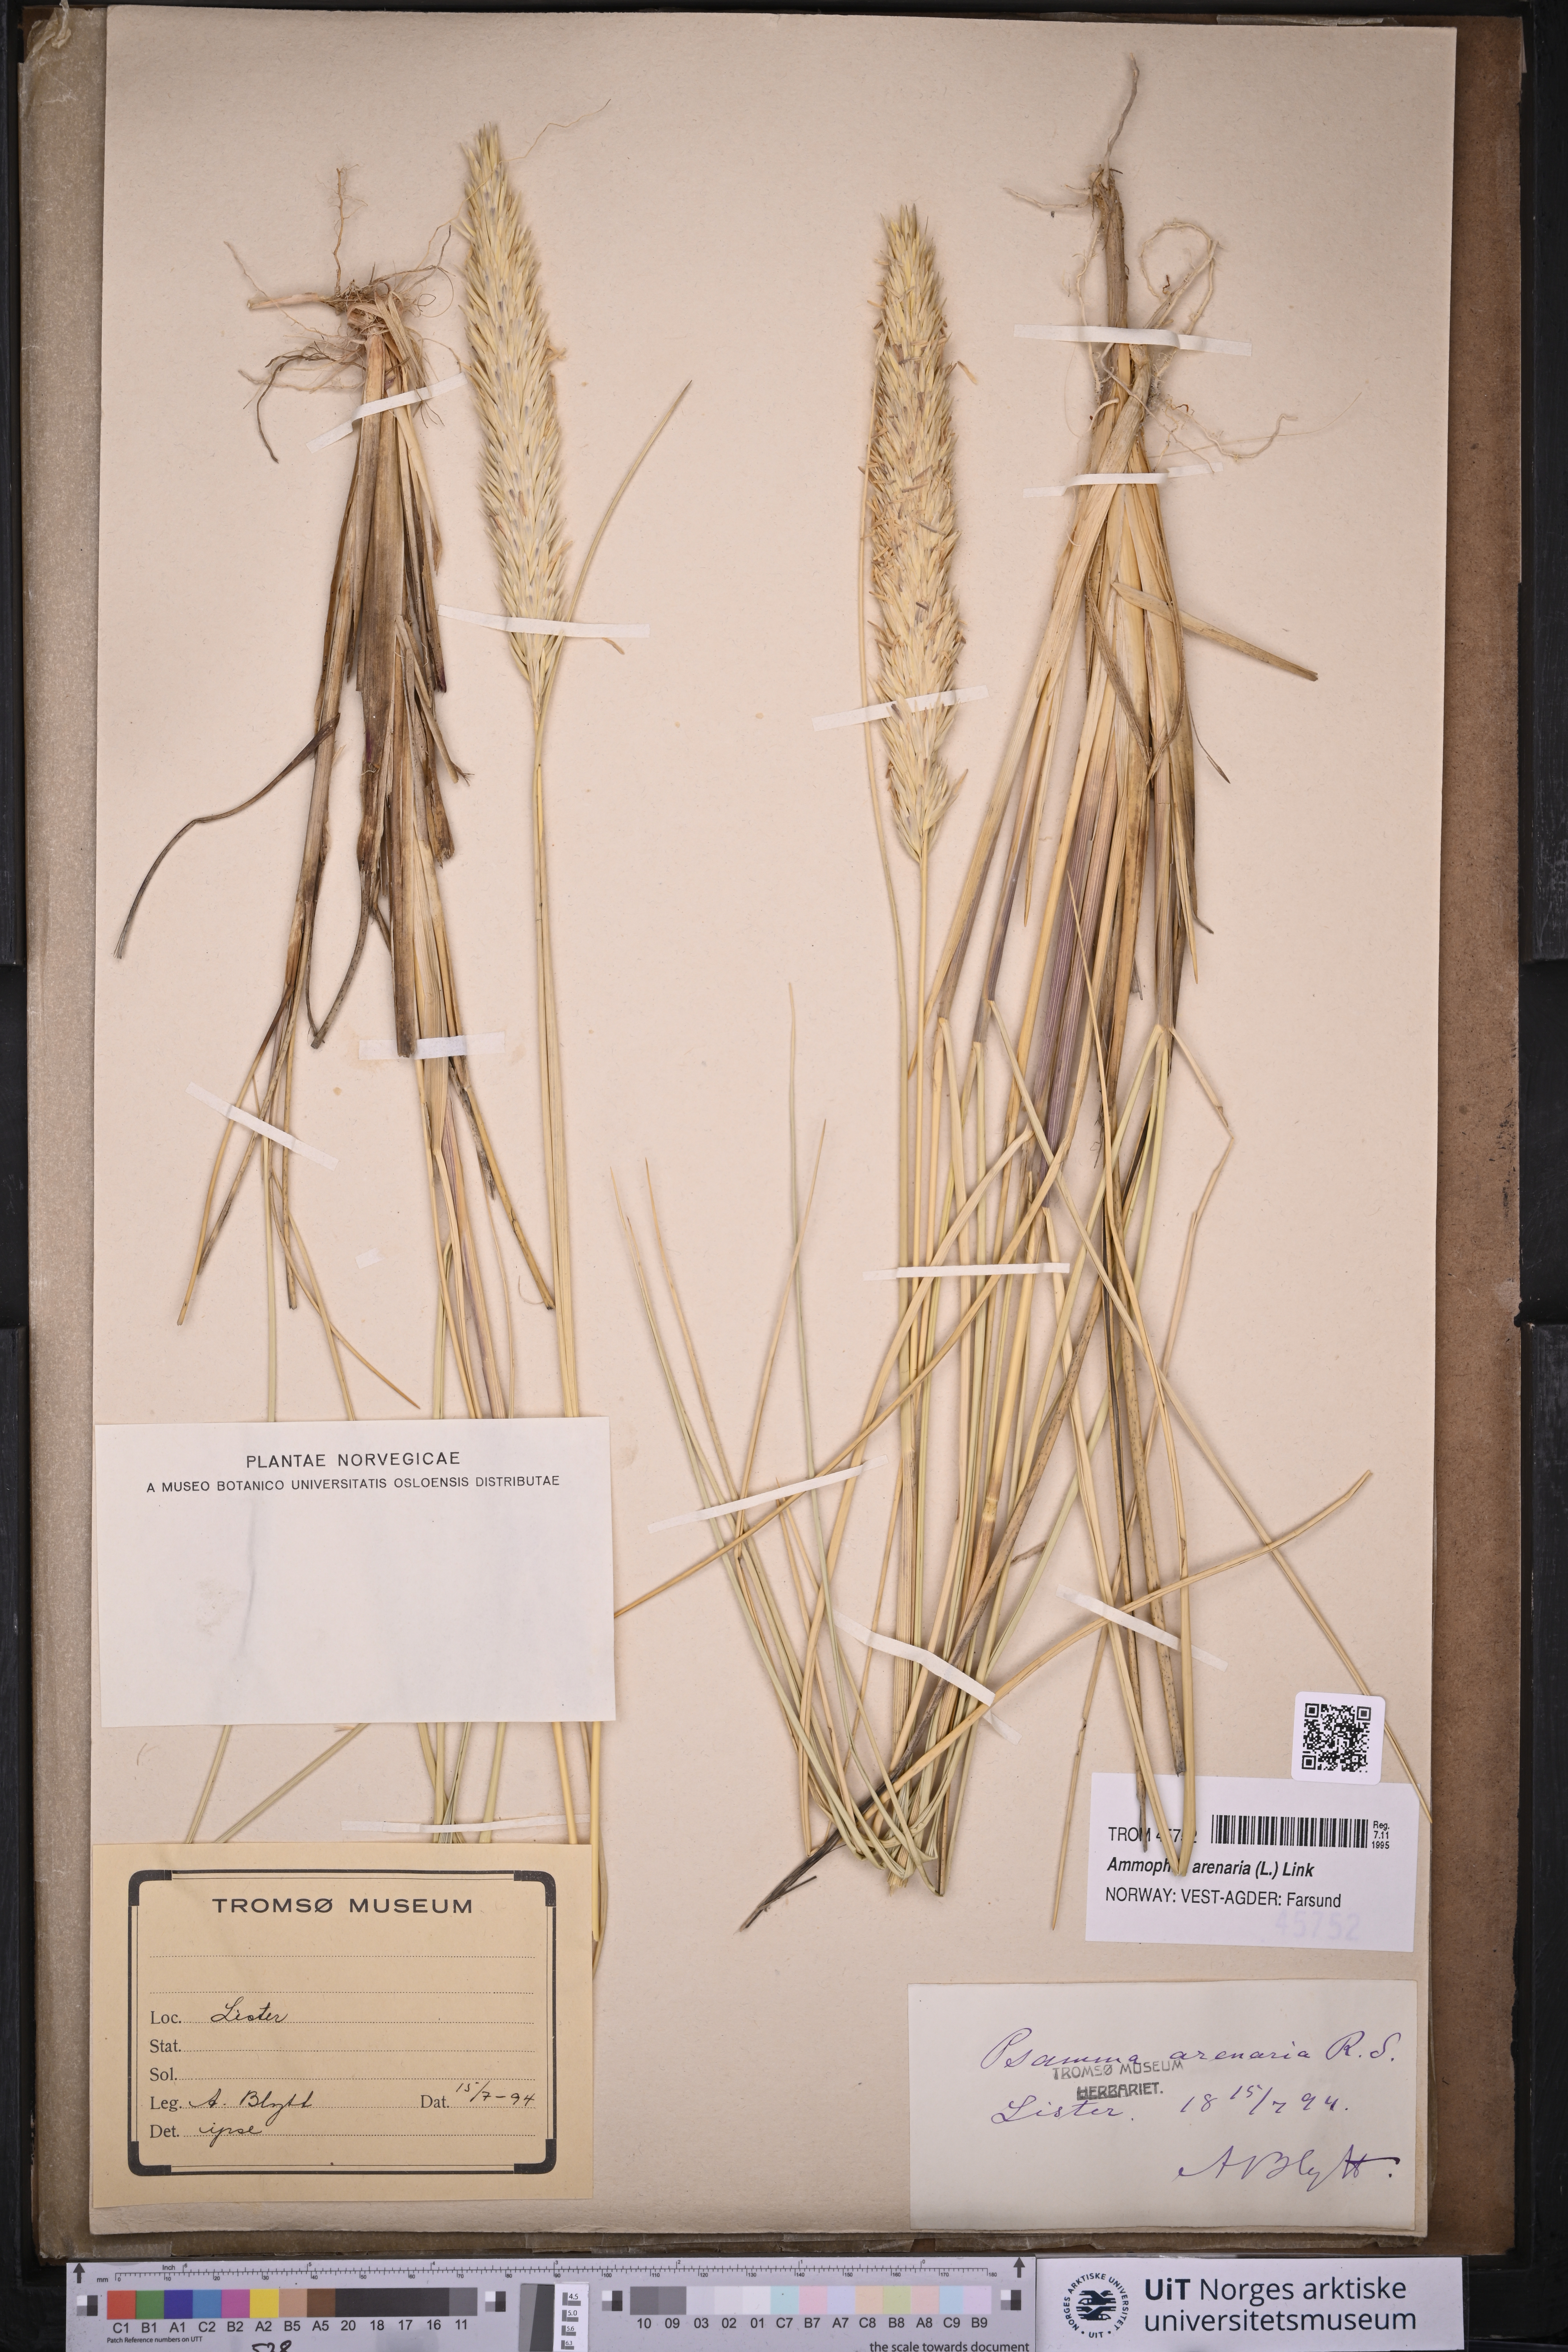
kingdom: Plantae
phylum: Tracheophyta
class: Liliopsida
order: Poales
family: Poaceae
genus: Calamagrostis
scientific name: Calamagrostis arenaria
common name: European beachgrass
